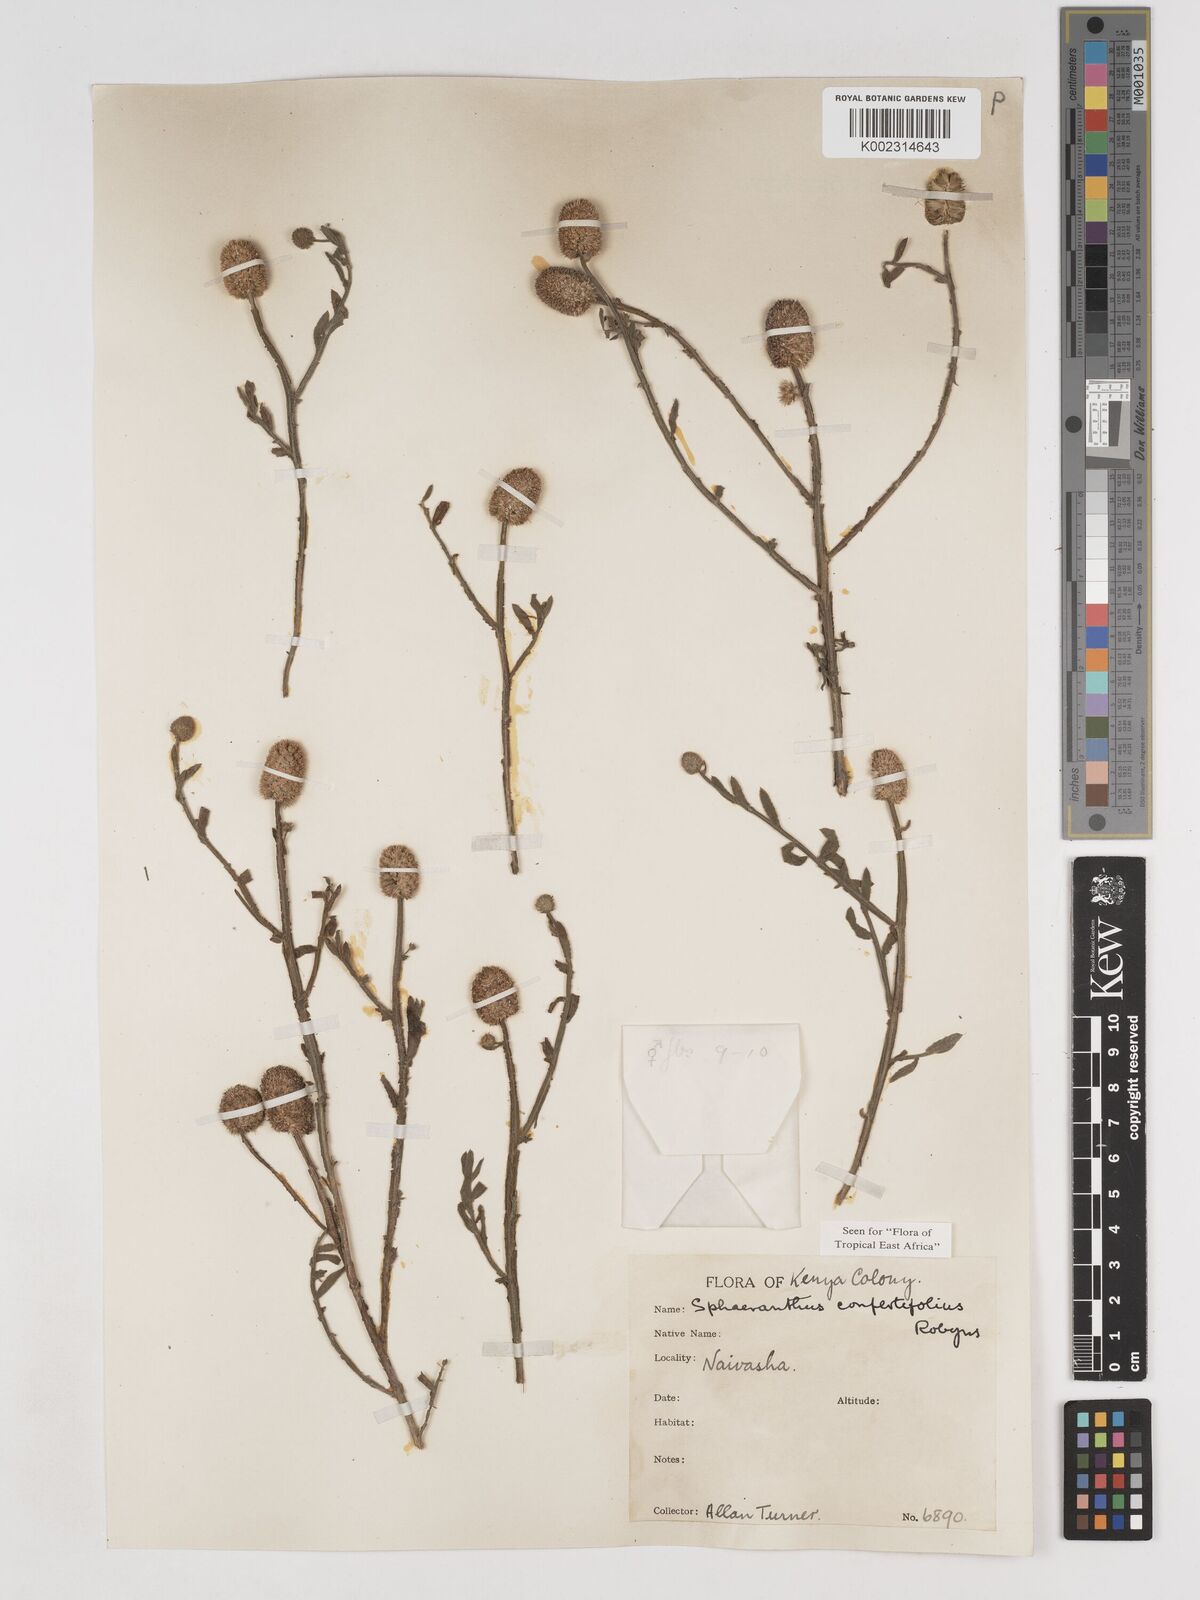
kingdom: Plantae
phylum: Tracheophyta
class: Magnoliopsida
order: Asterales
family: Asteraceae
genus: Sphaeranthus
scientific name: Sphaeranthus confertifolius
